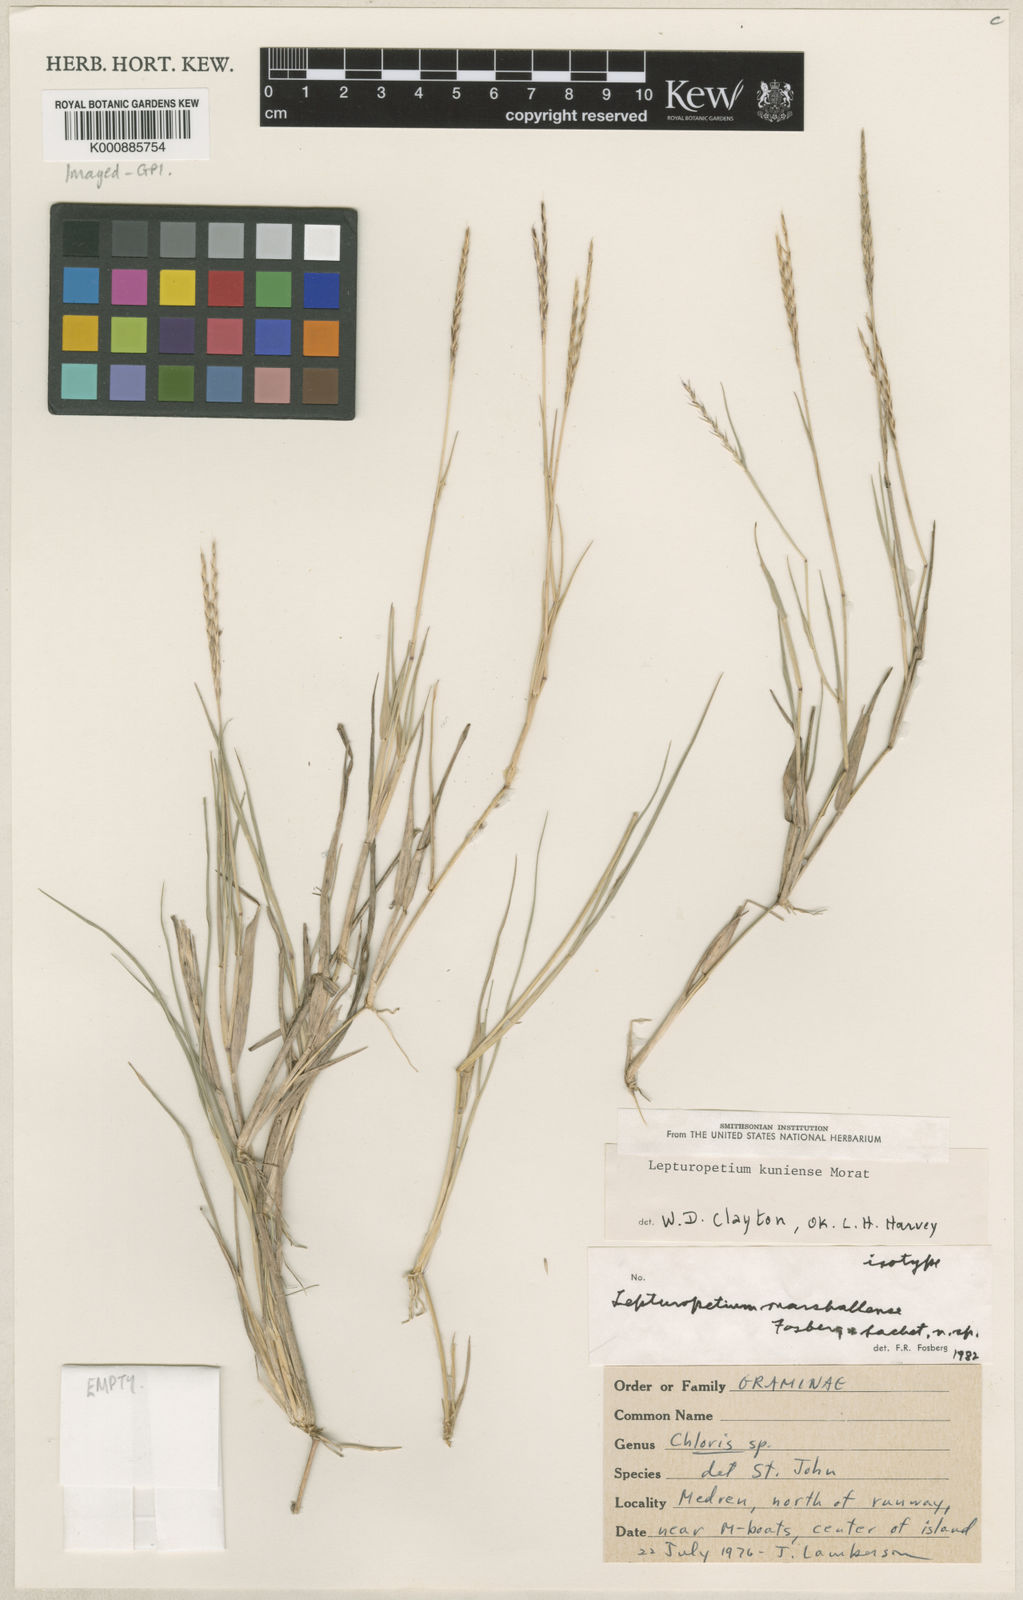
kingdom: Plantae
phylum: Tracheophyta
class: Liliopsida
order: Poales
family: Poaceae
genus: Lepturopetium
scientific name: Lepturopetium marshallense
